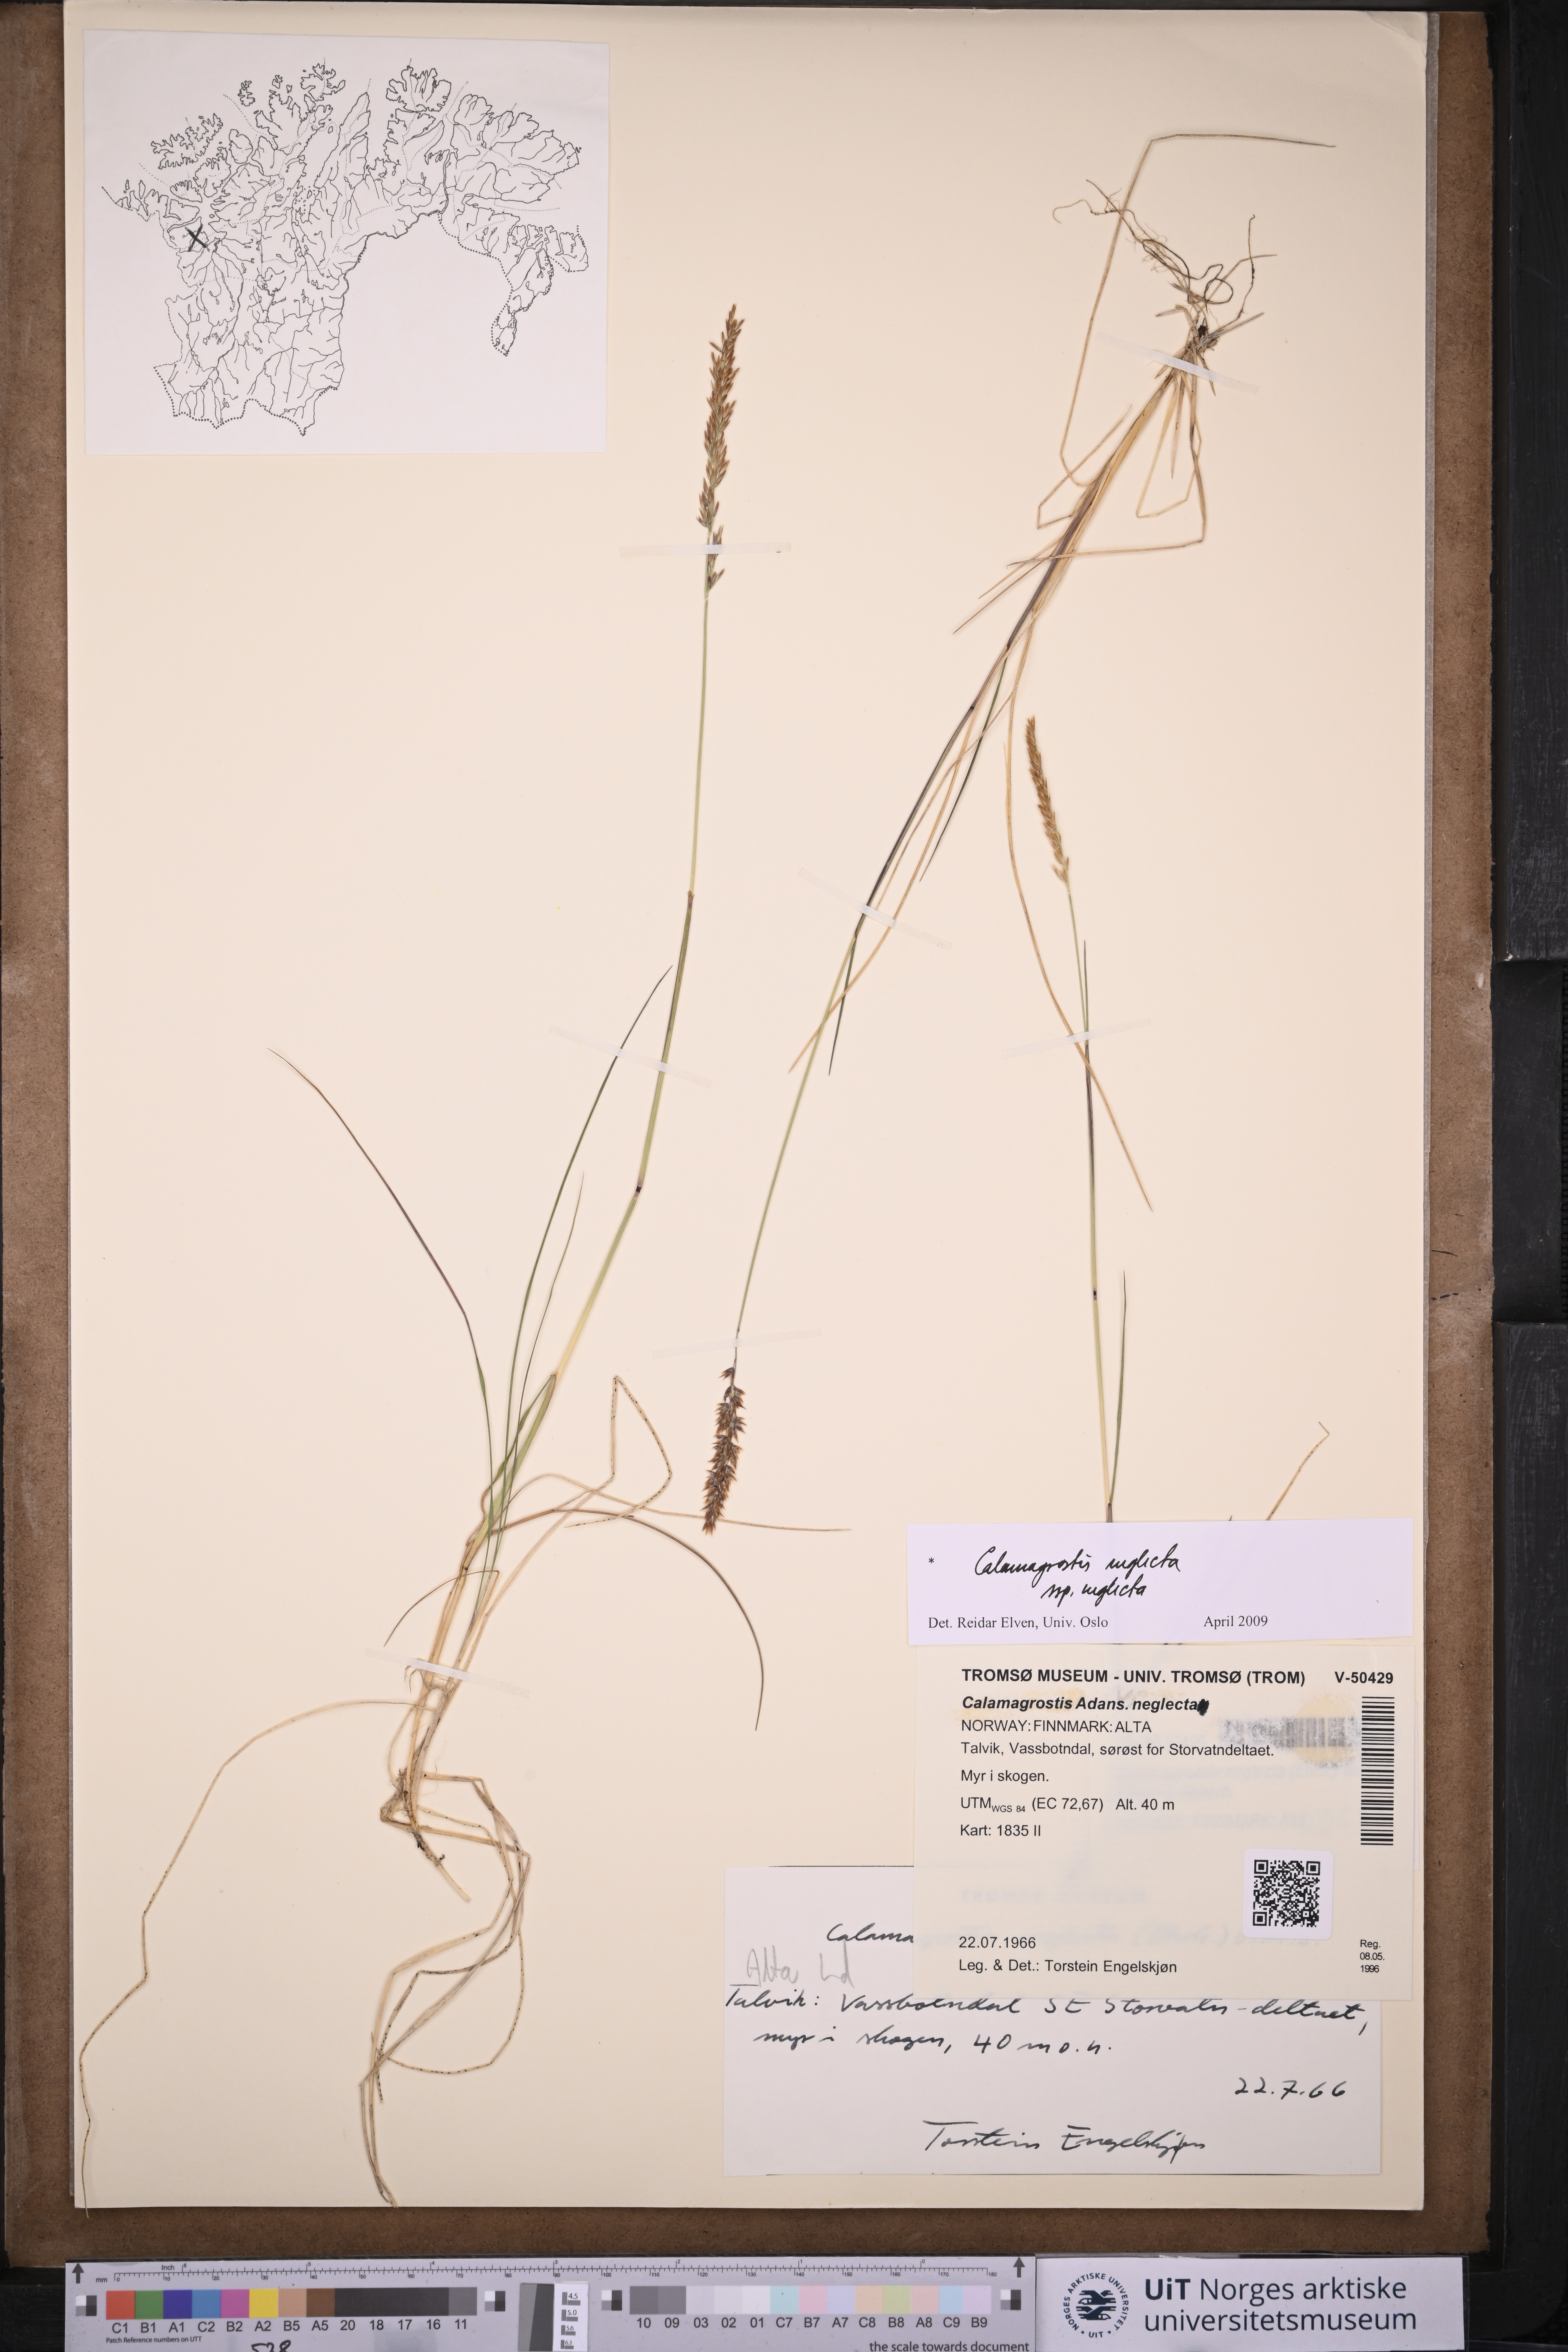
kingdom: Plantae
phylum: Tracheophyta
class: Liliopsida
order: Poales
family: Poaceae
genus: Achnatherum
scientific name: Achnatherum calamagrostis
